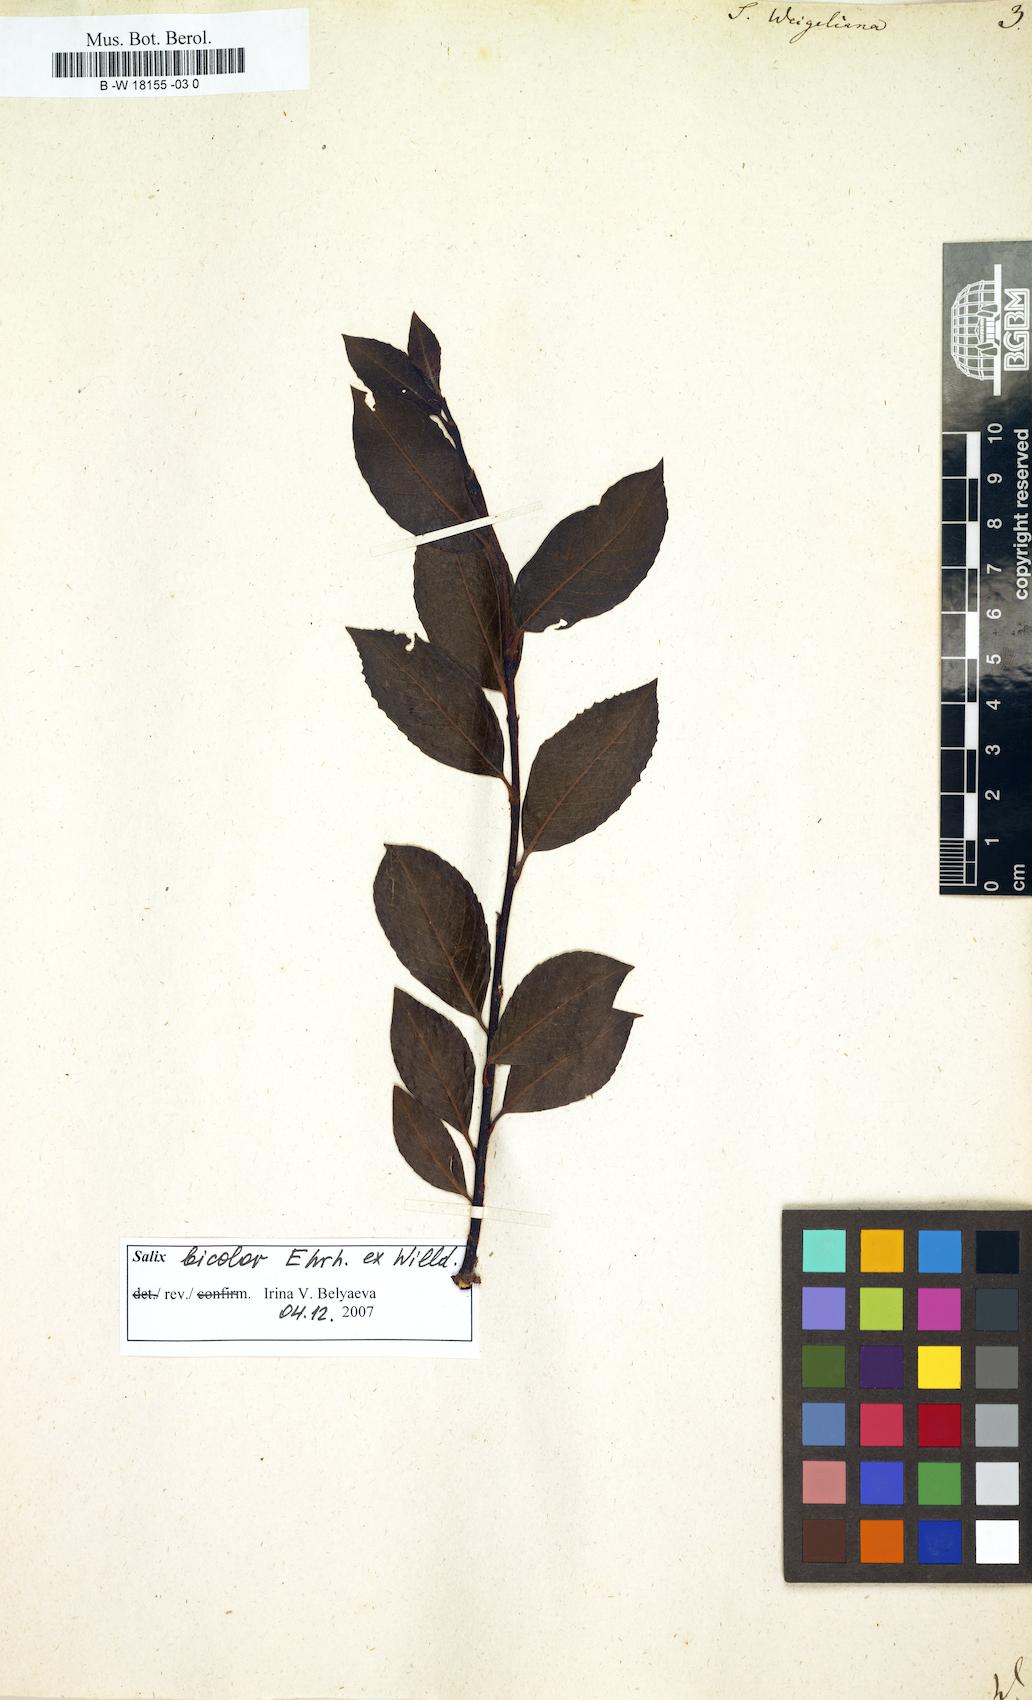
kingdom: Plantae
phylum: Tracheophyta
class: Magnoliopsida
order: Malpighiales
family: Salicaceae
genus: Salix
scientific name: Salix bicolor
